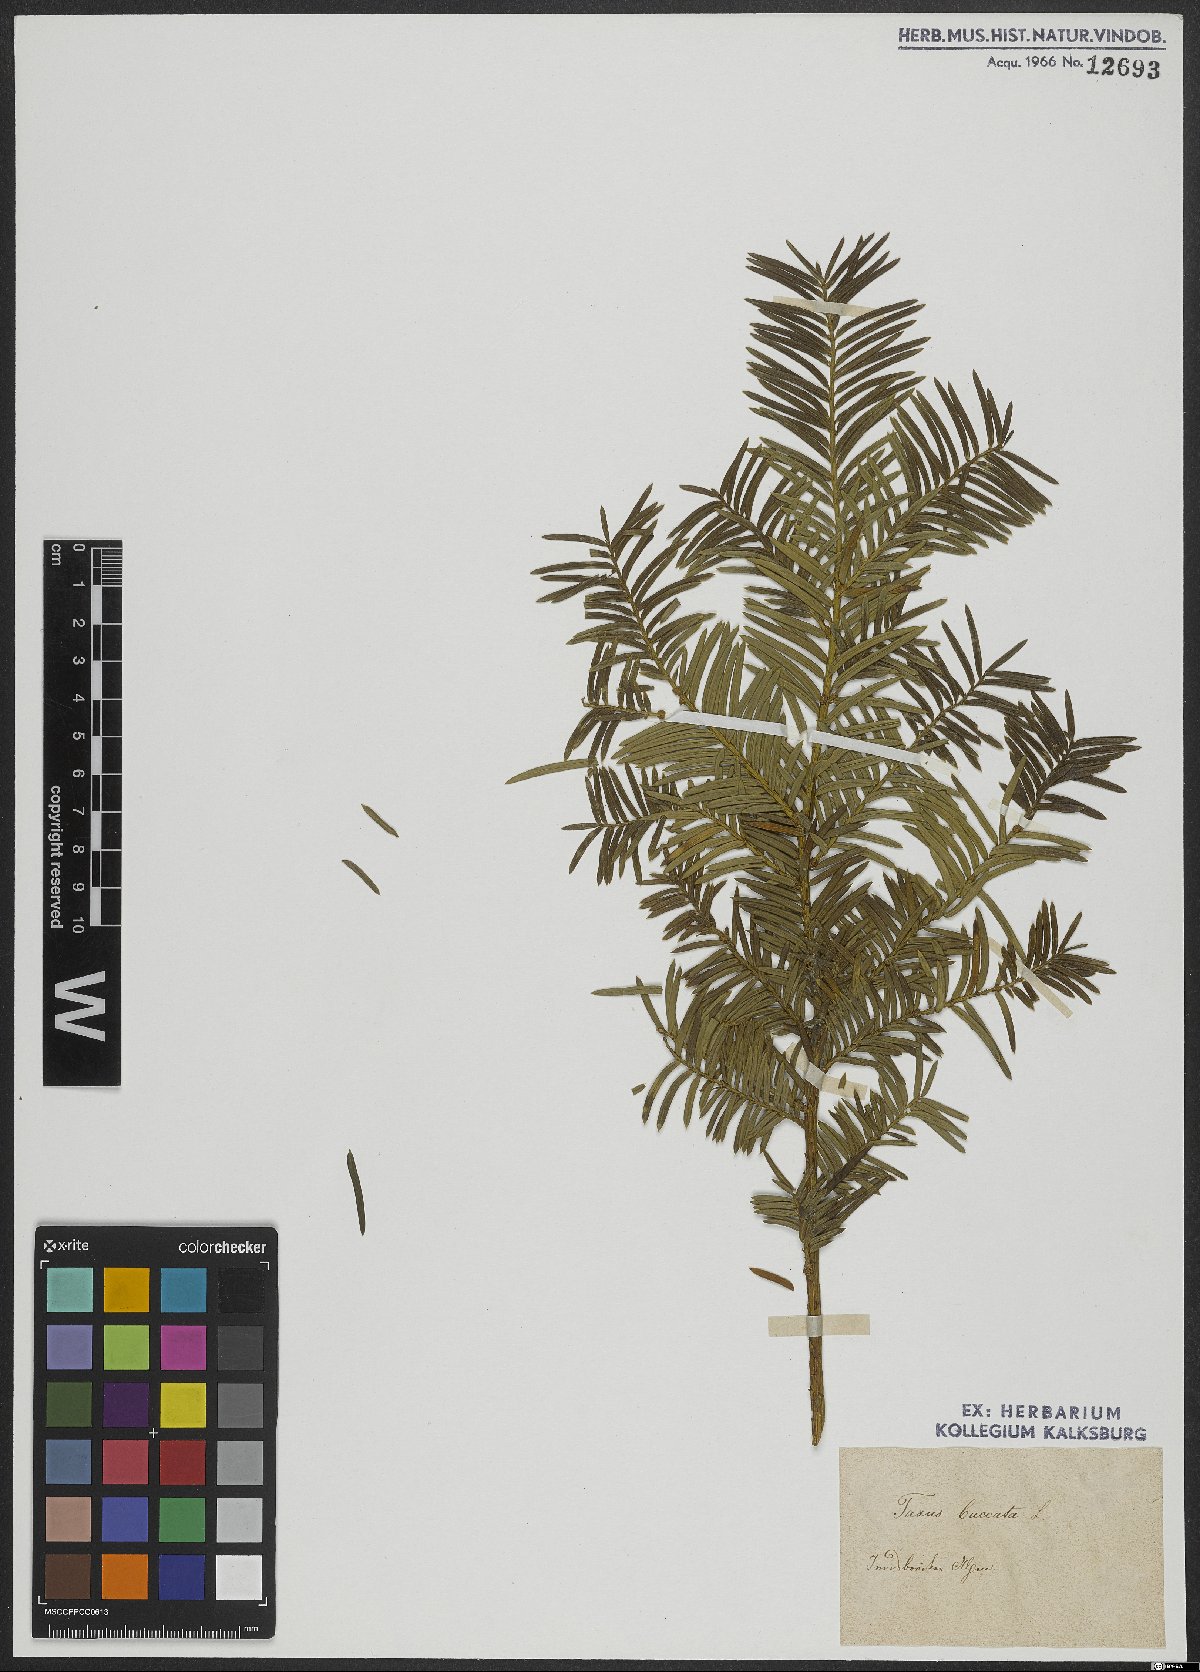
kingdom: Plantae
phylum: Tracheophyta
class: Pinopsida
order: Pinales
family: Taxaceae
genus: Taxus
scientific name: Taxus baccata
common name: Yew
